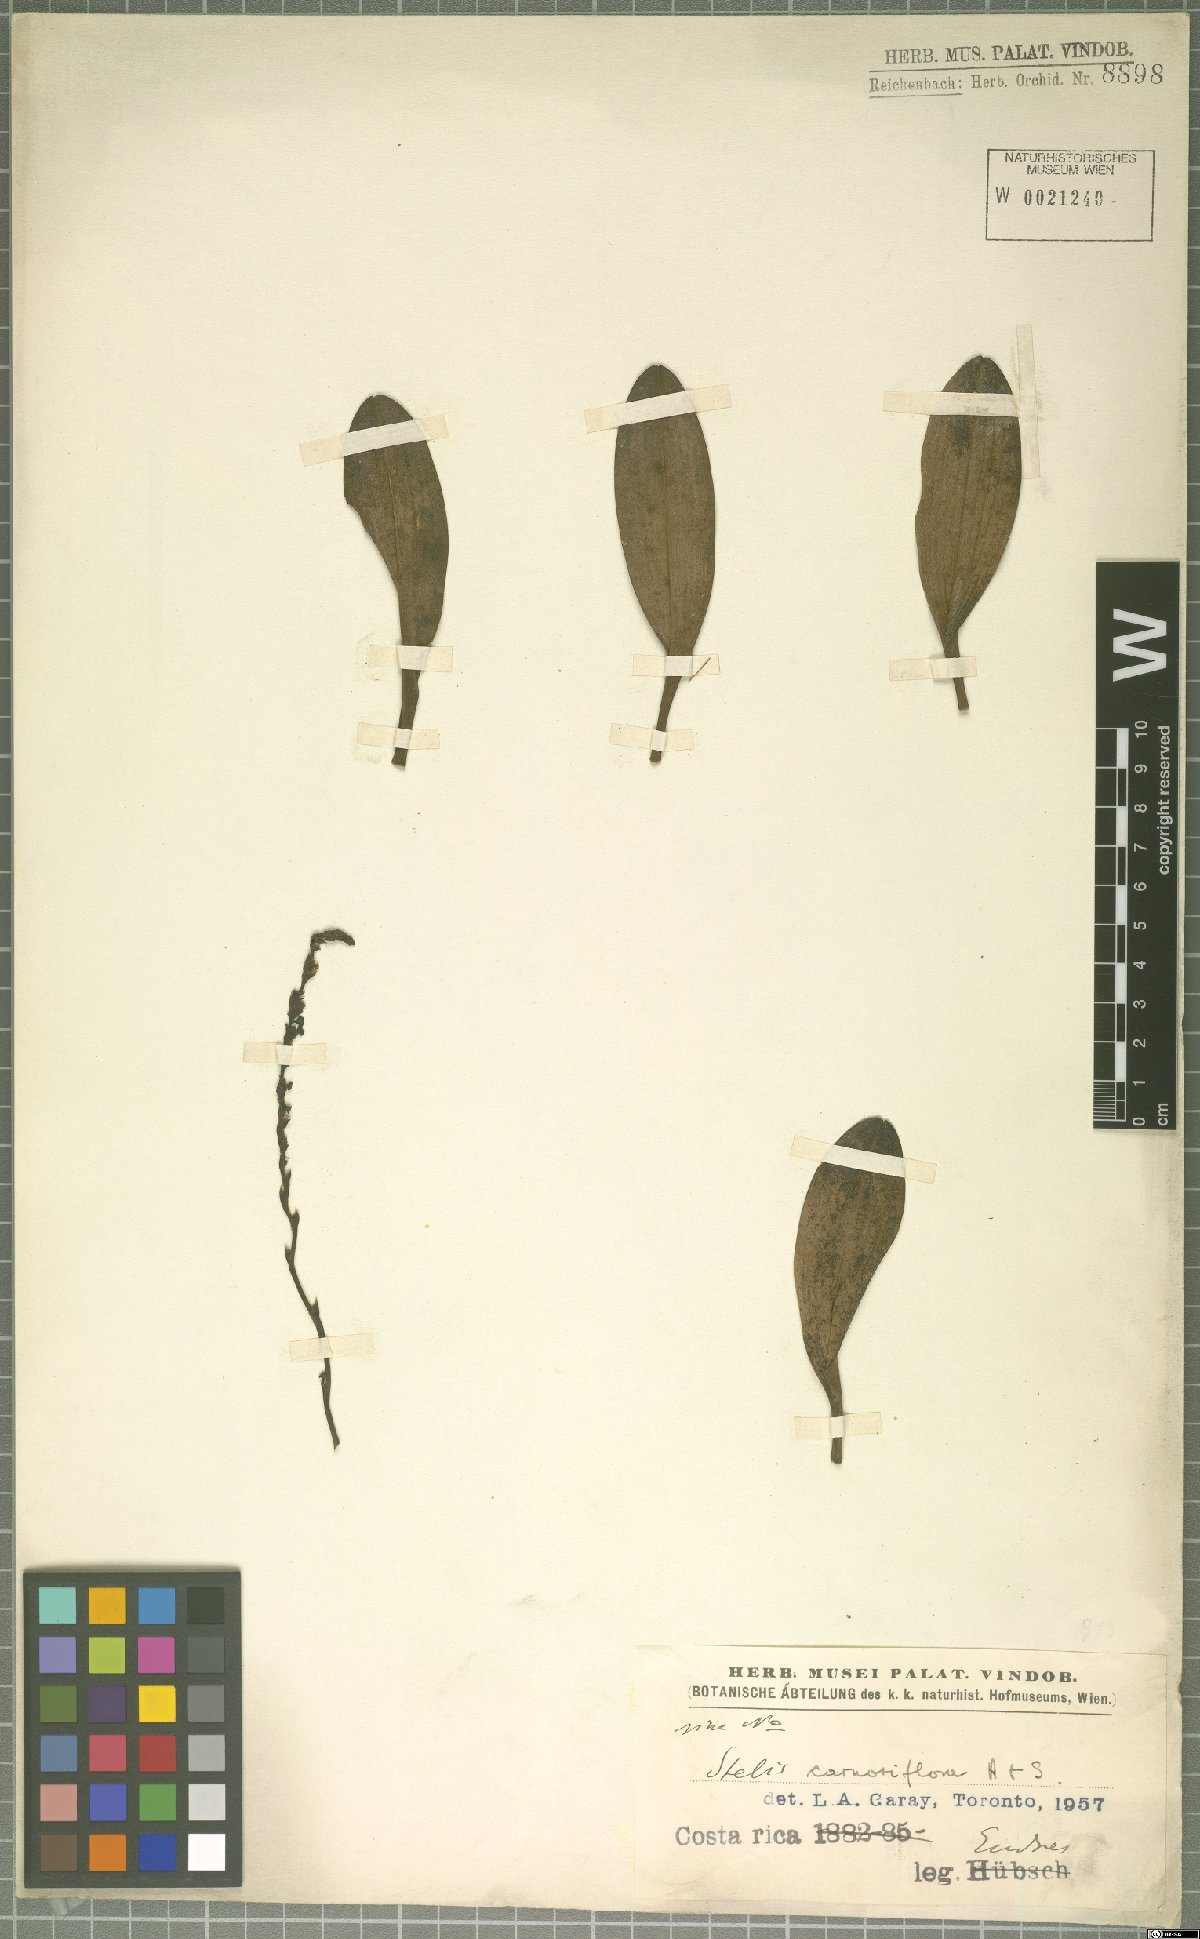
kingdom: Plantae
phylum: Tracheophyta
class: Liliopsida
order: Asparagales
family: Orchidaceae
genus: Stelis
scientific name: Stelis carnosiflora
